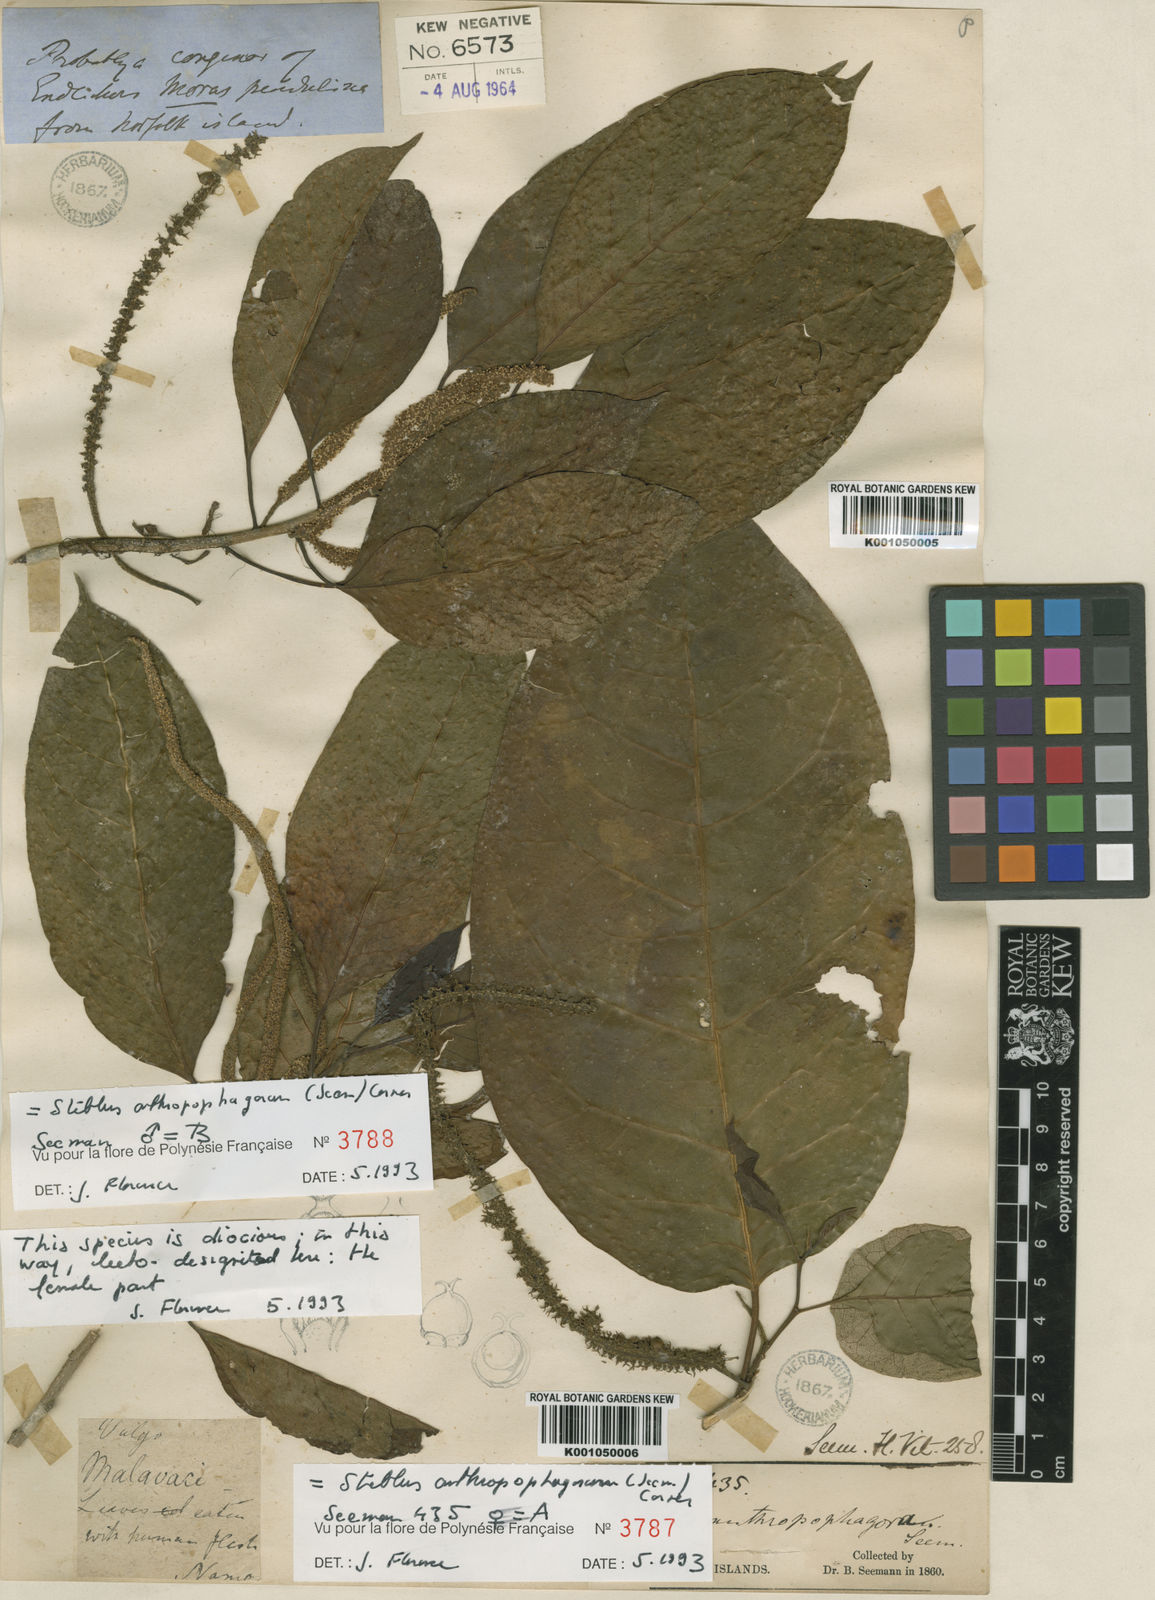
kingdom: Plantae
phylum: Tracheophyta
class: Magnoliopsida
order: Rosales
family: Moraceae
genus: Paratrophis
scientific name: Paratrophis anthropophagorum
